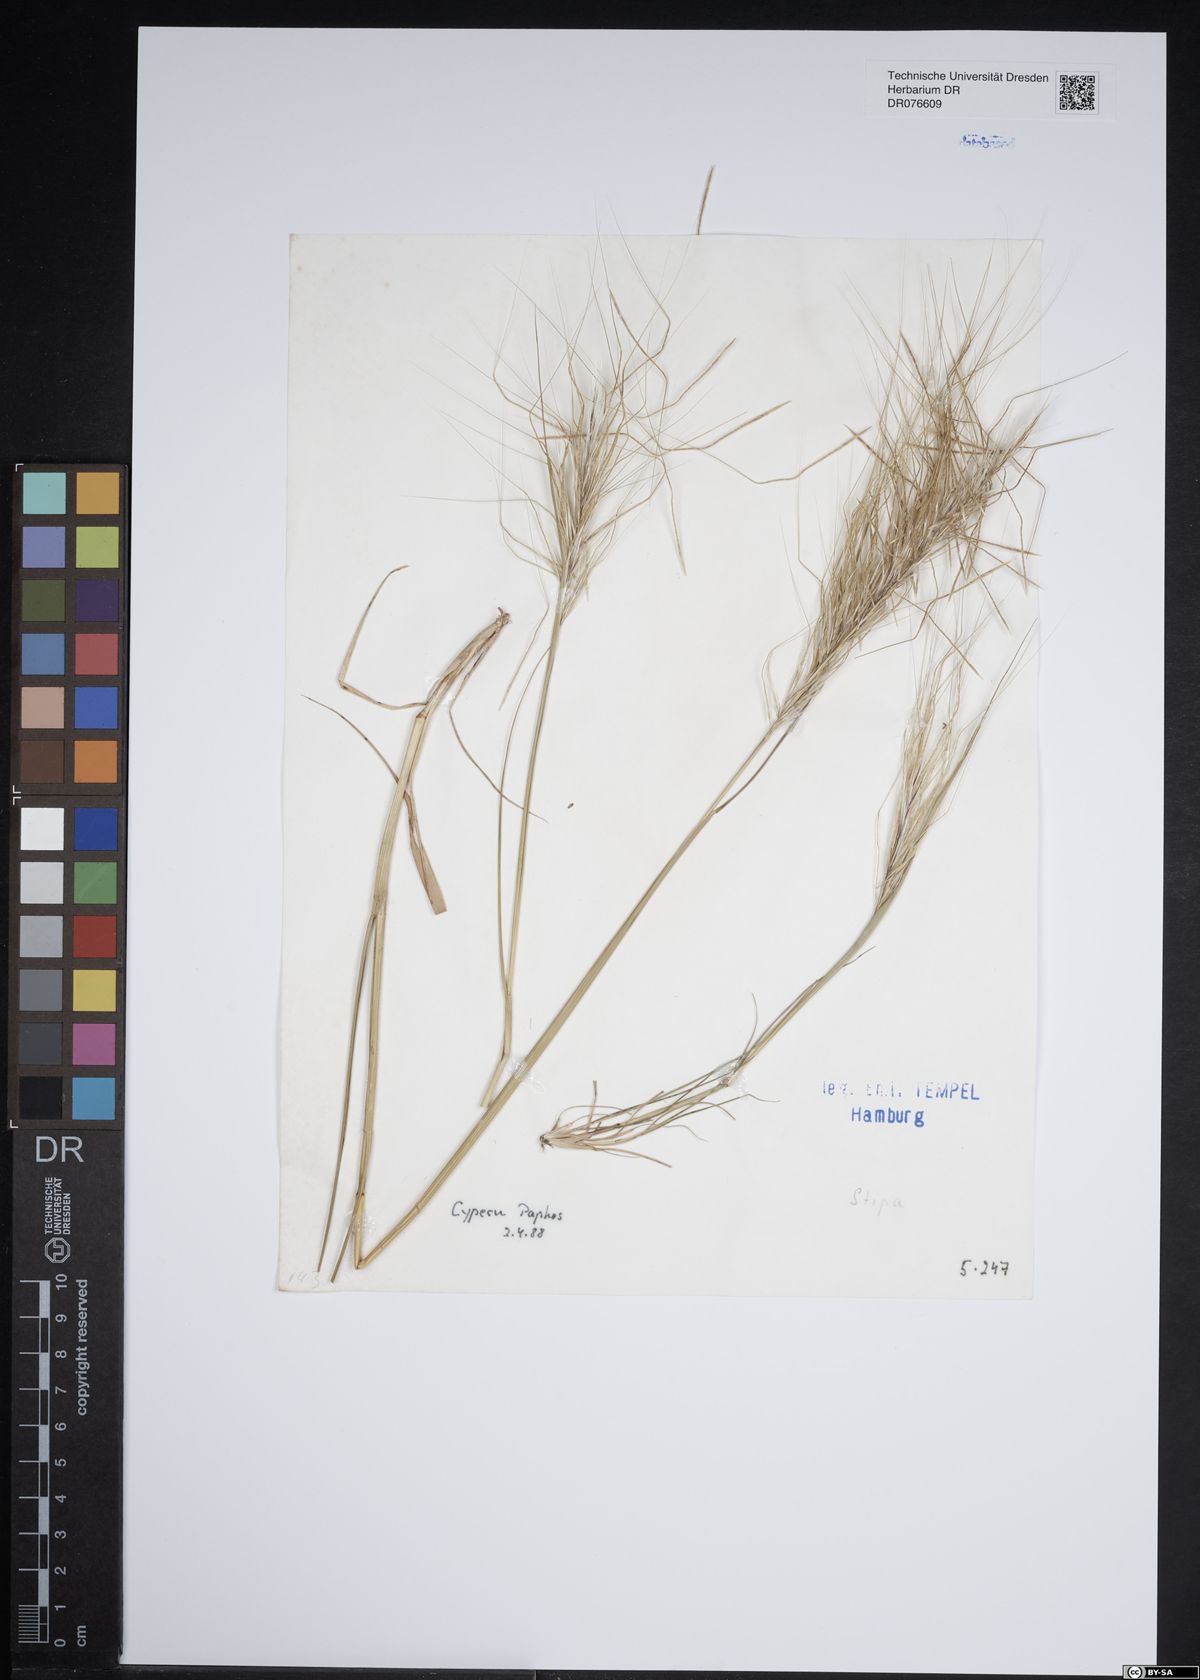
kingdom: Plantae
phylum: Tracheophyta
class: Liliopsida
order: Poales
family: Poaceae
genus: Stipa
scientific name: Stipa
